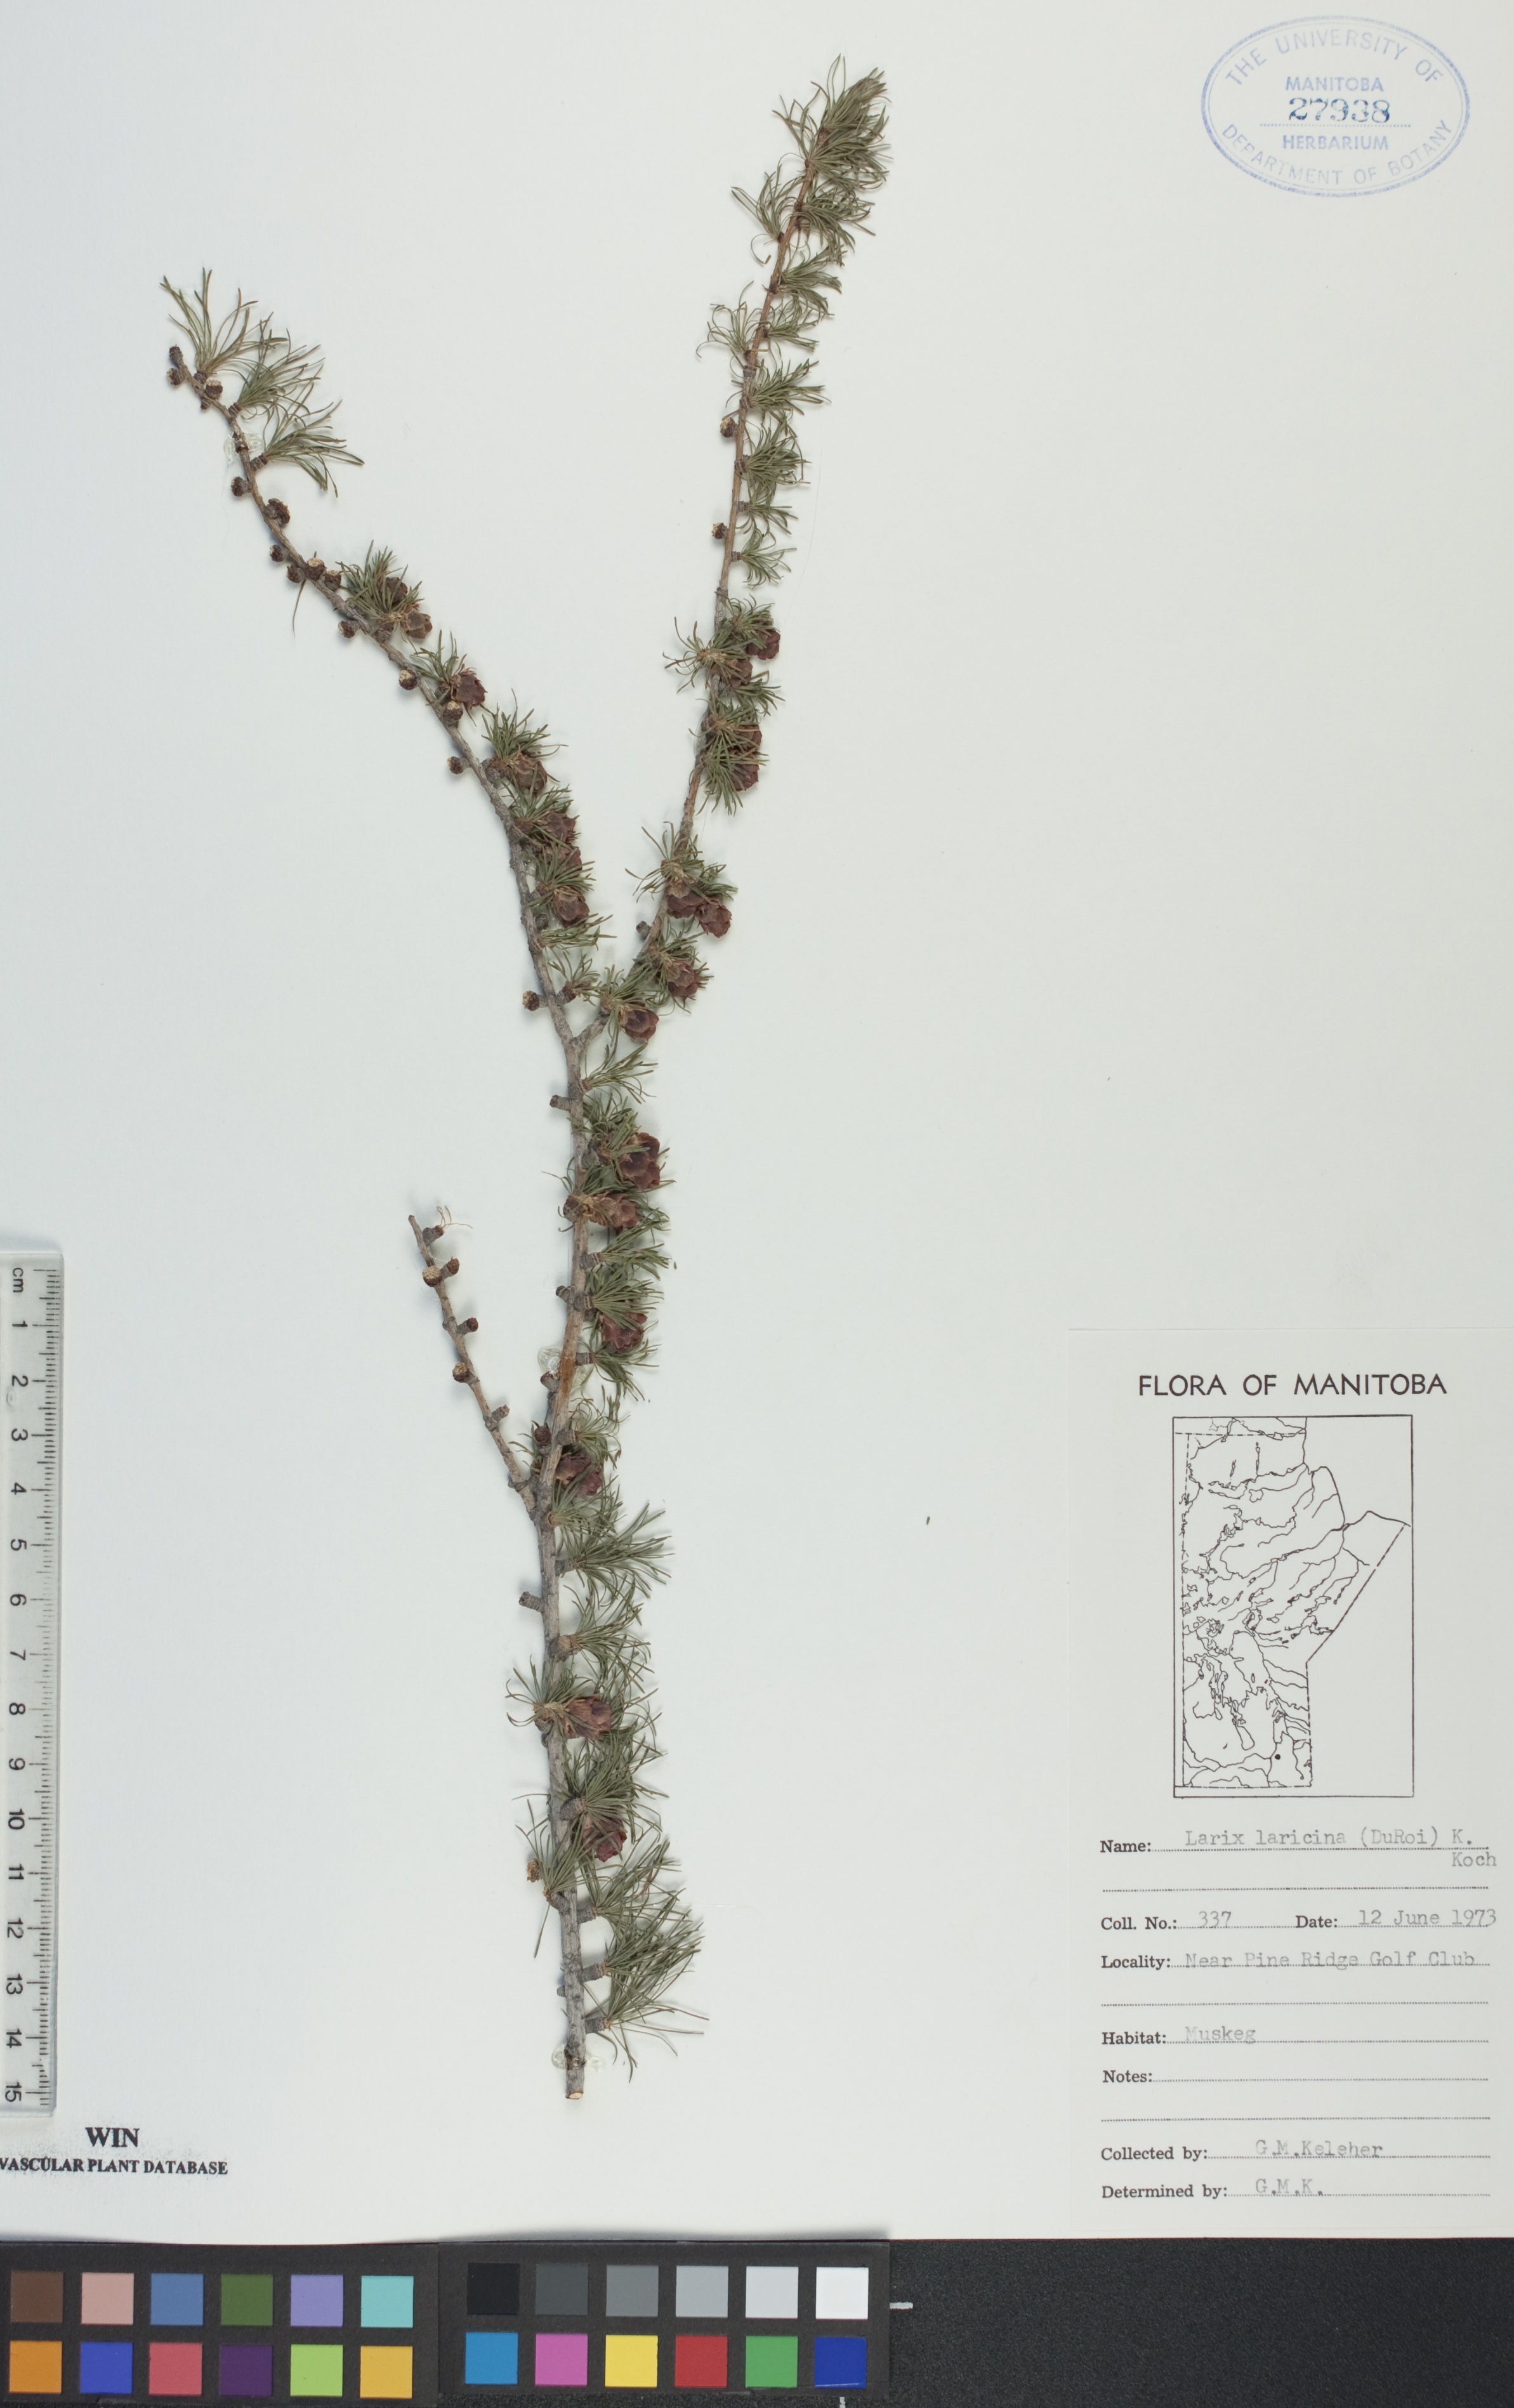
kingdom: Plantae
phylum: Tracheophyta
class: Pinopsida
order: Pinales
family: Pinaceae
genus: Larix
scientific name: Larix laricina
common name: American larch
